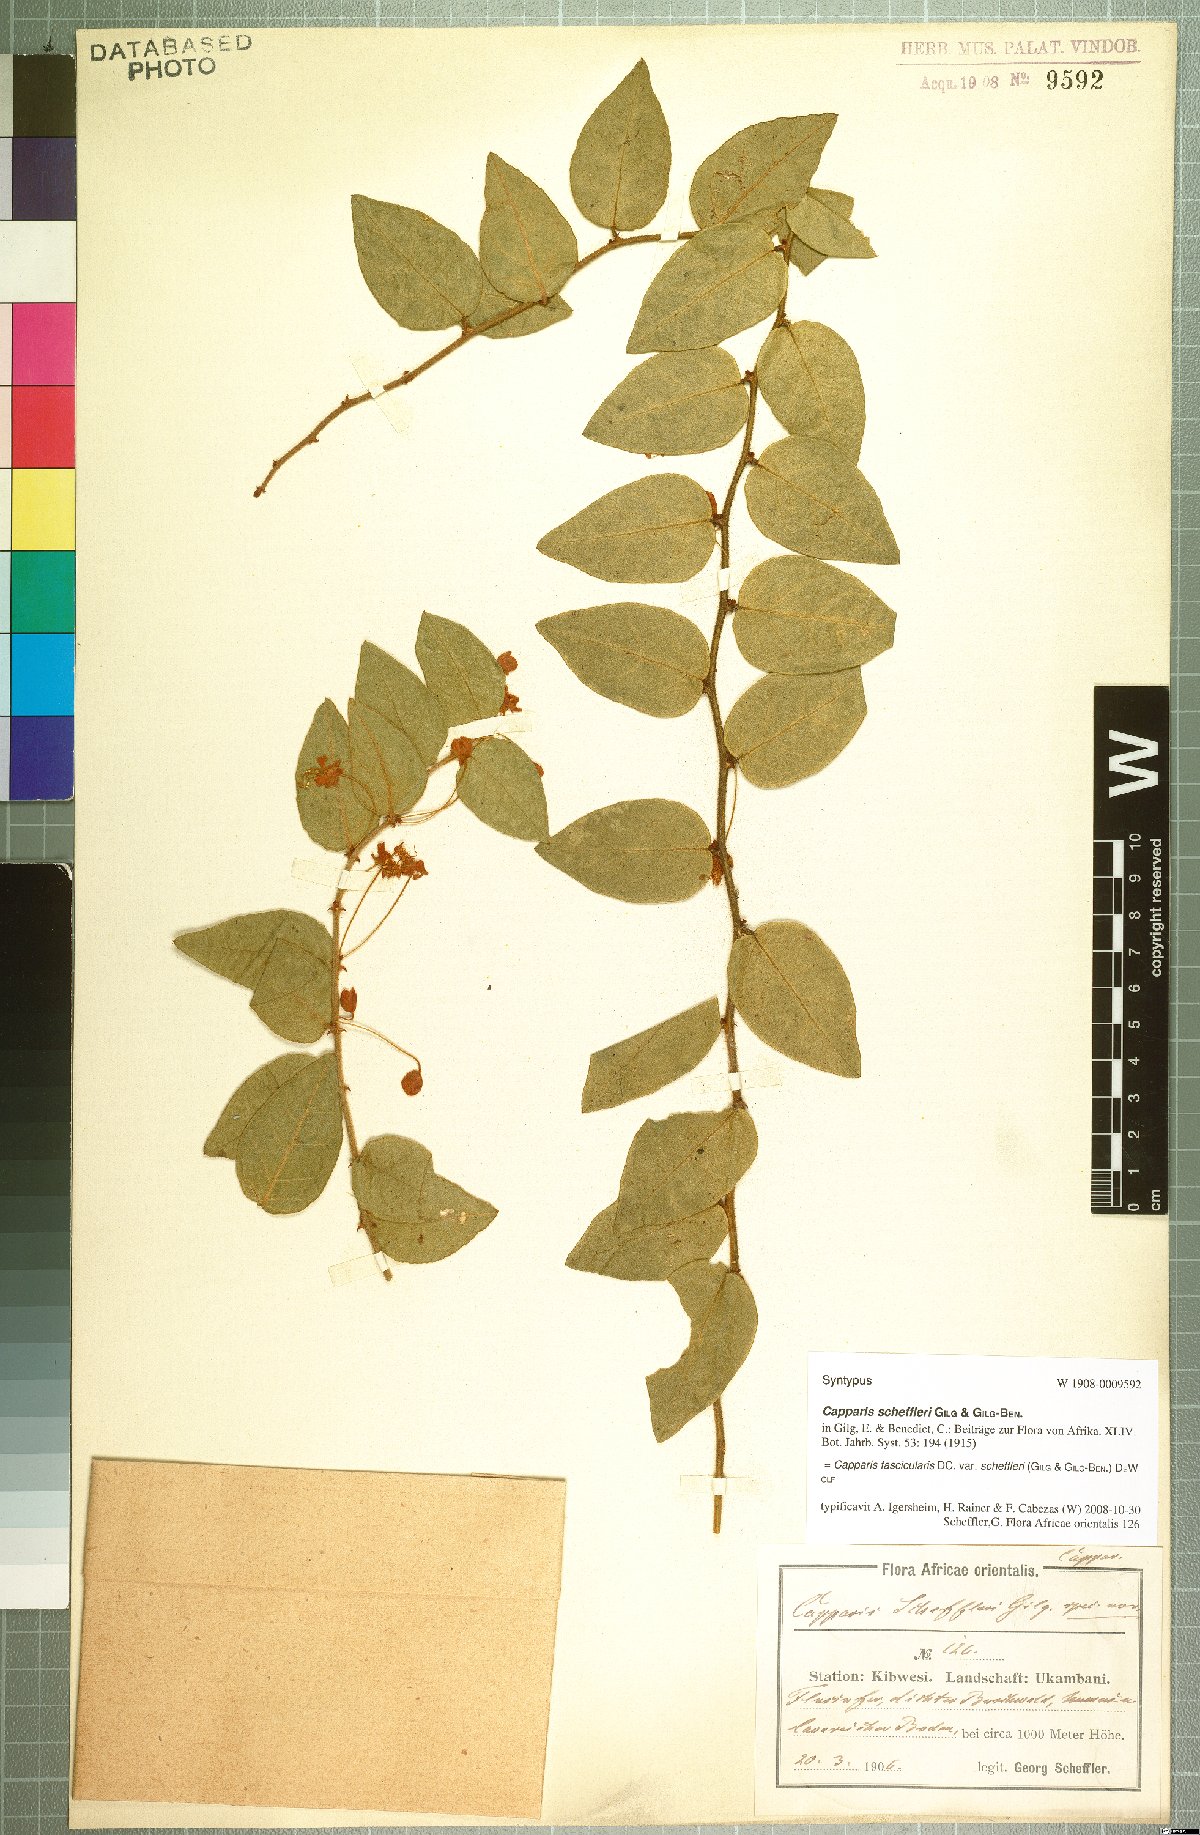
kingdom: Plantae
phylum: Tracheophyta
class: Magnoliopsida
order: Brassicales
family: Capparaceae
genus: Capparis
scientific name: Capparis fascicularis
